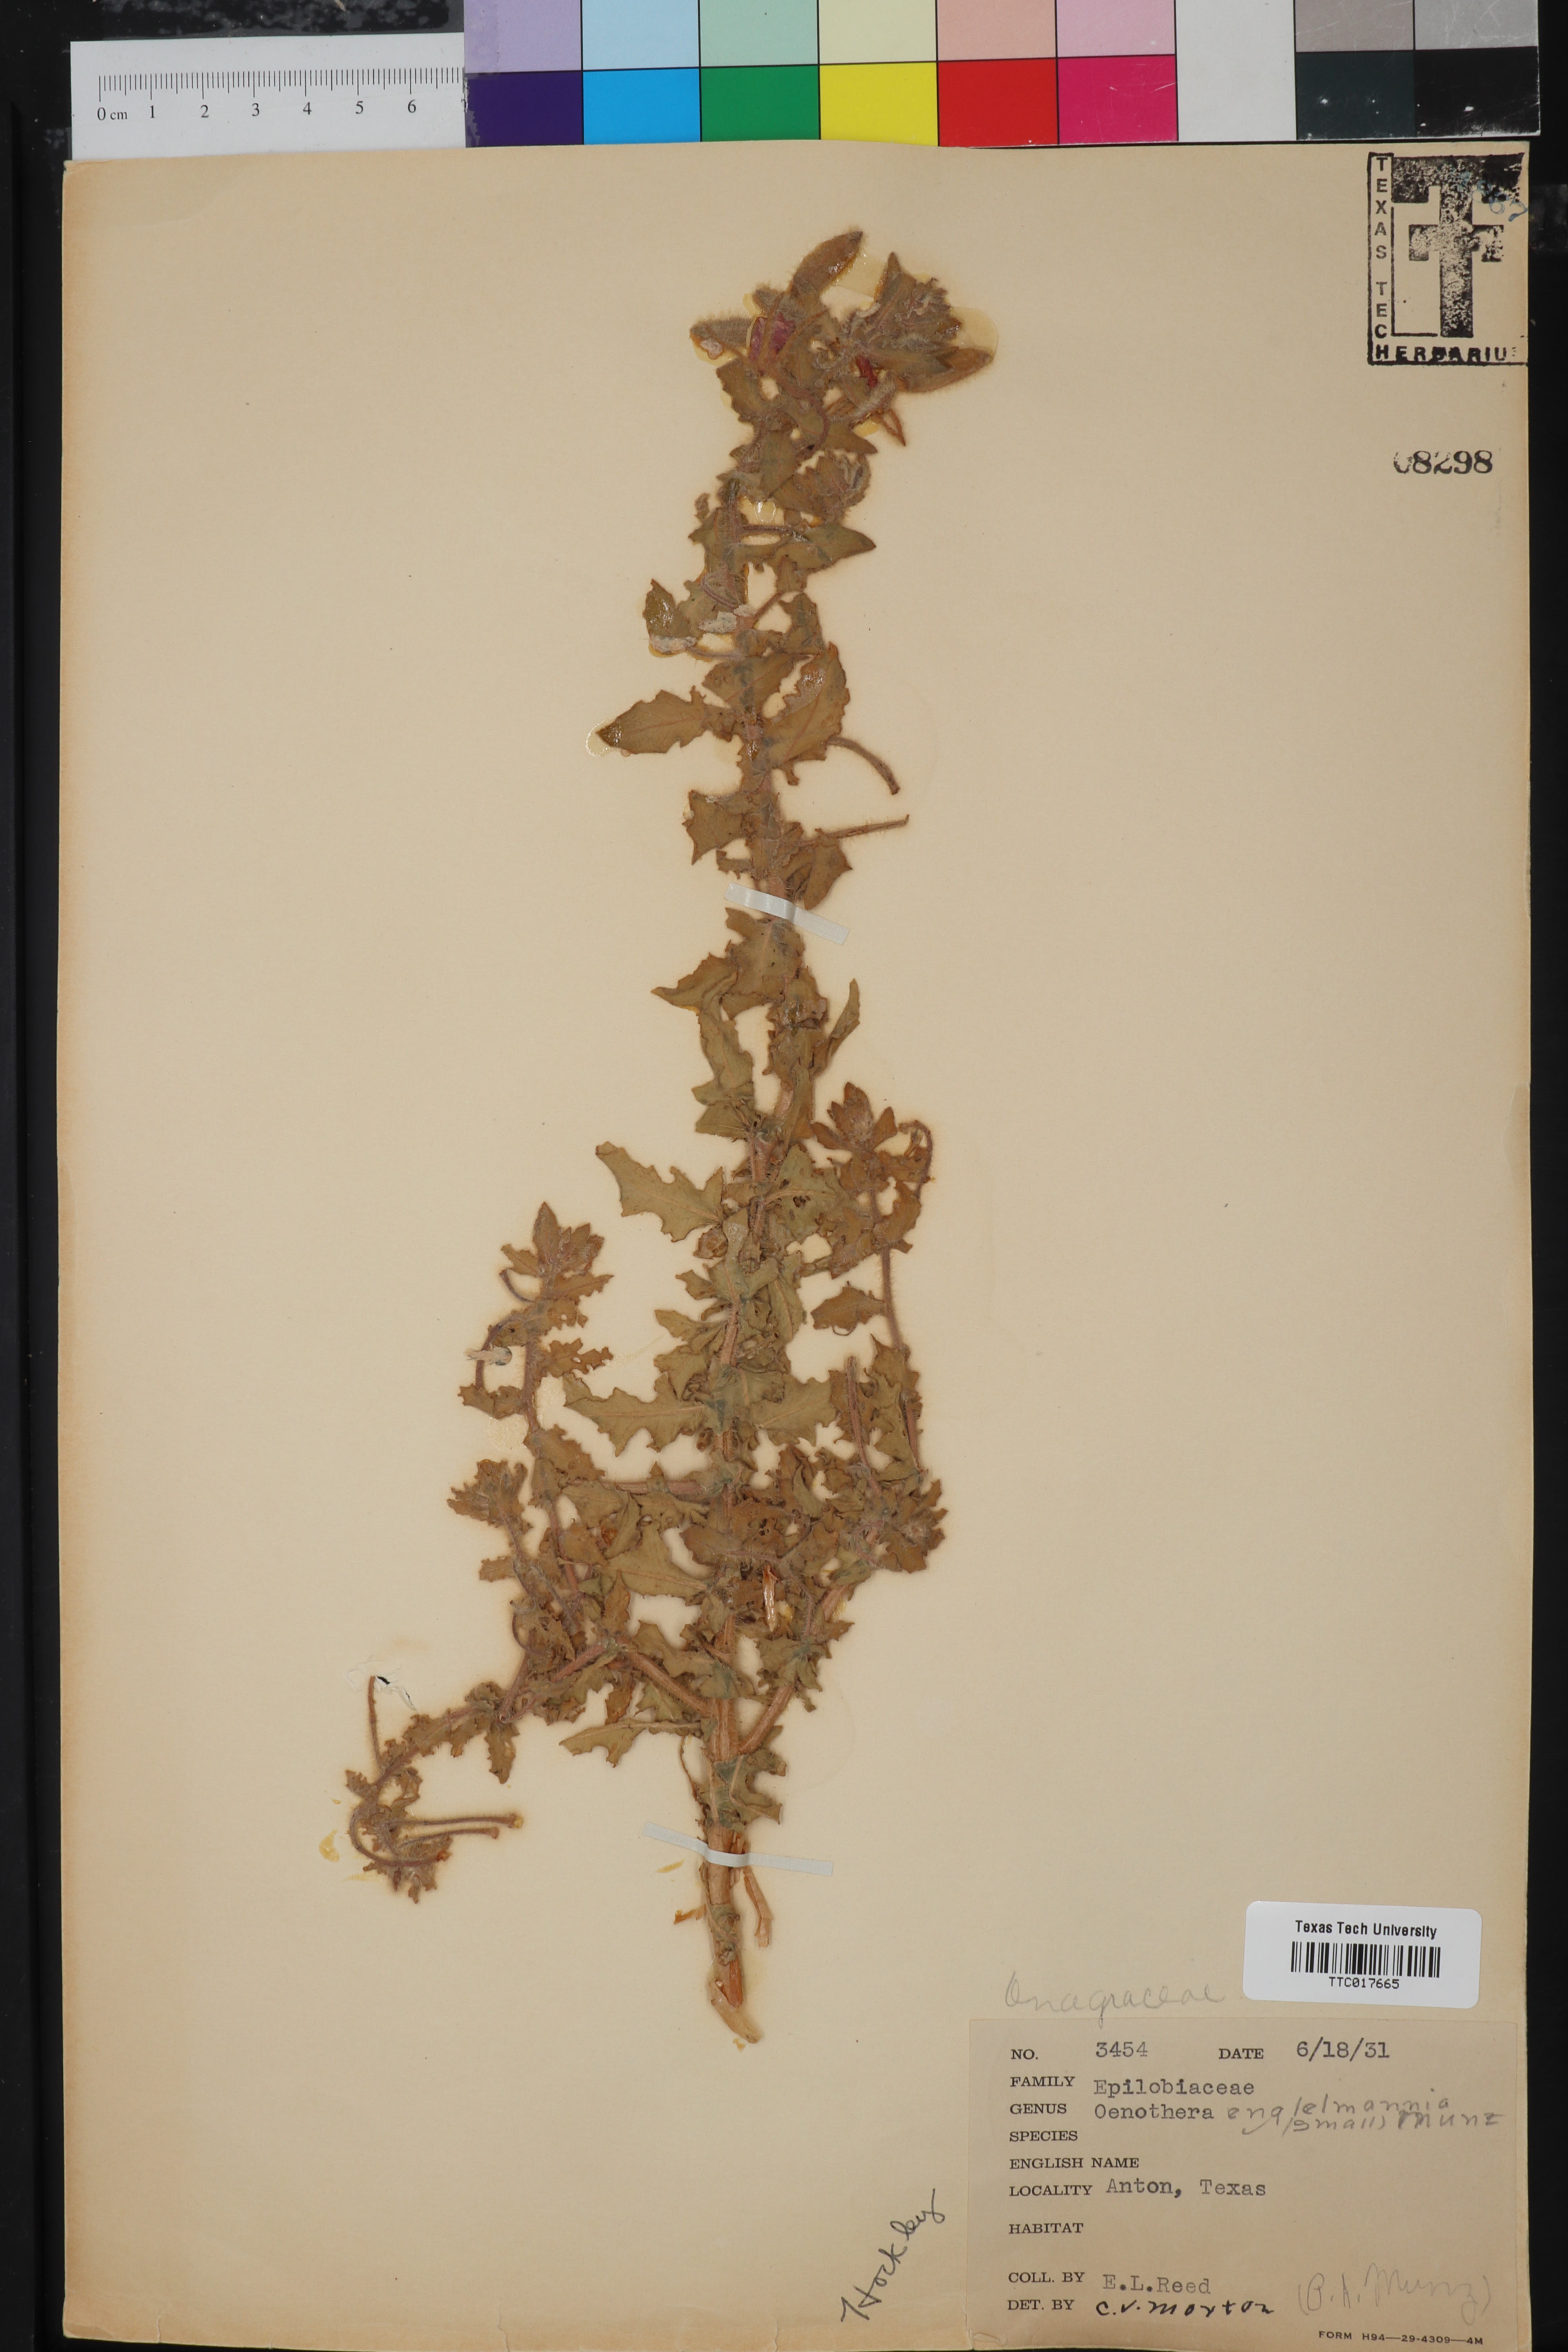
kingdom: Plantae
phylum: Tracheophyta
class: Magnoliopsida
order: Myrtales
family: Onagraceae
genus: Oenothera
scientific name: Oenothera engelmannii
